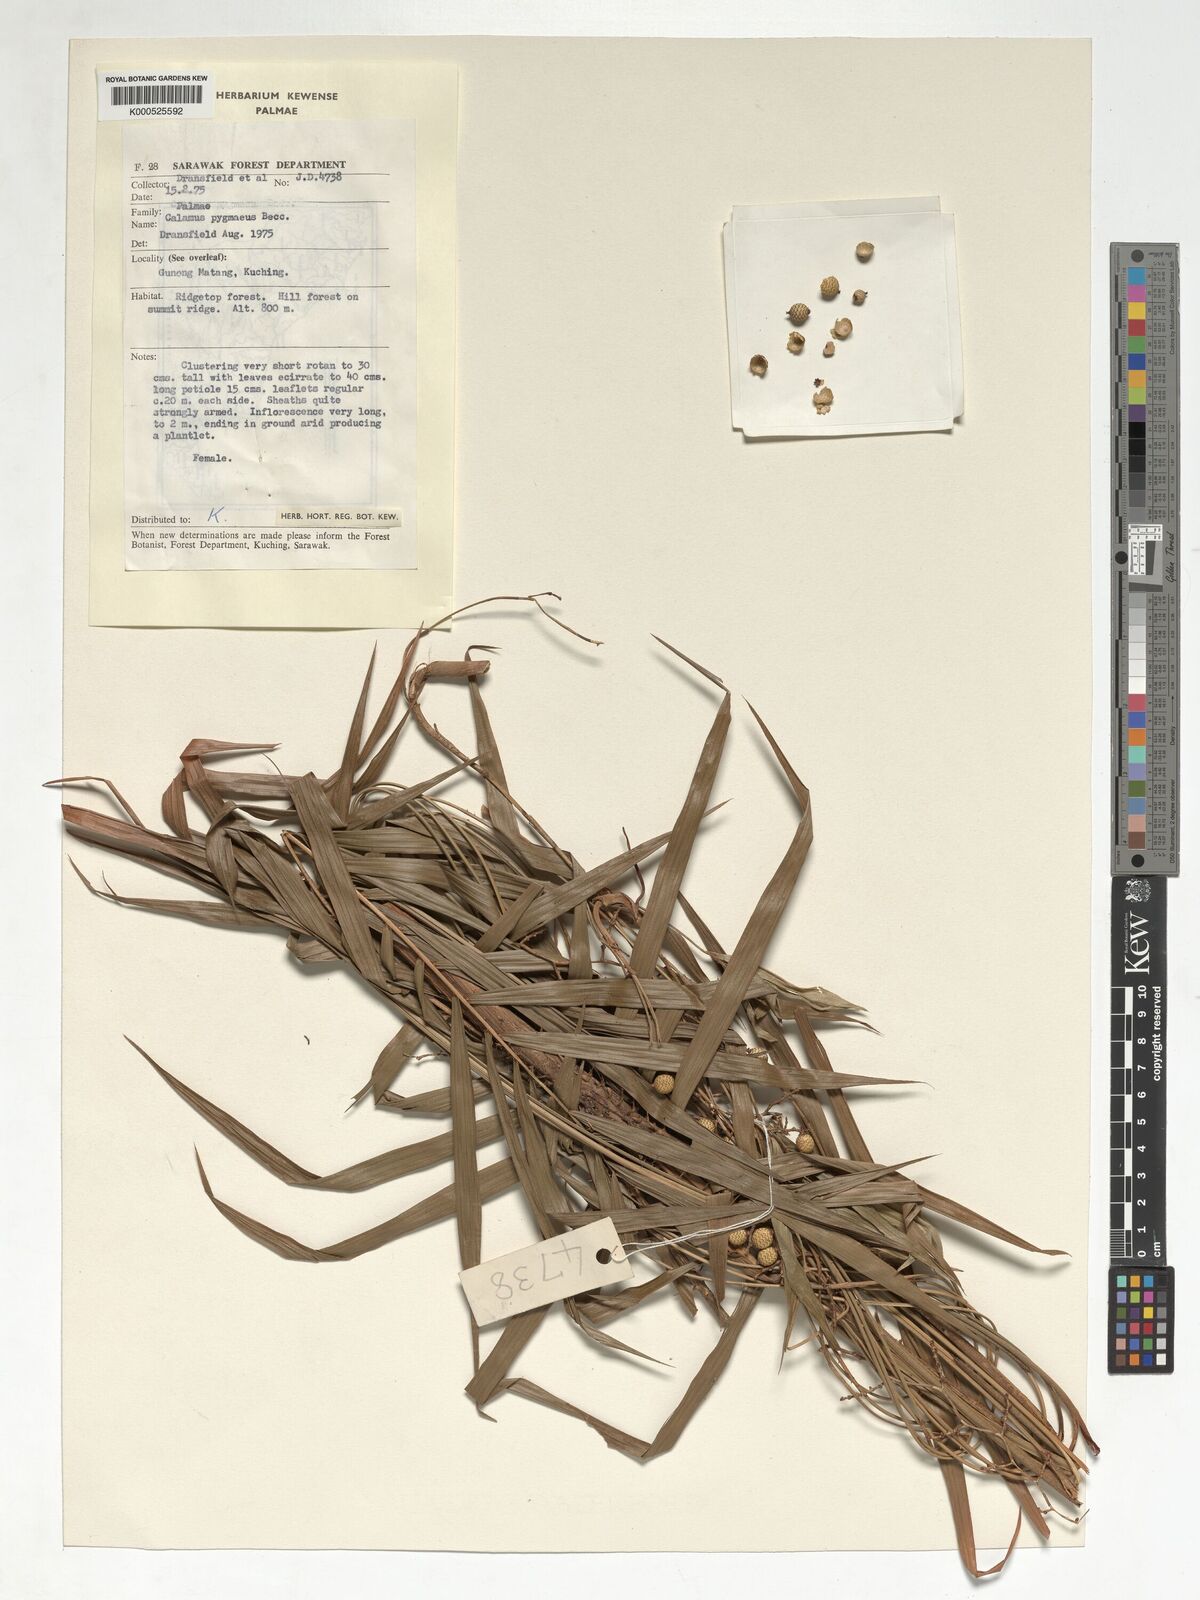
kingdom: Plantae
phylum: Tracheophyta
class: Liliopsida
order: Arecales
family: Arecaceae
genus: Calamus
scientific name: Calamus pygmaeus
